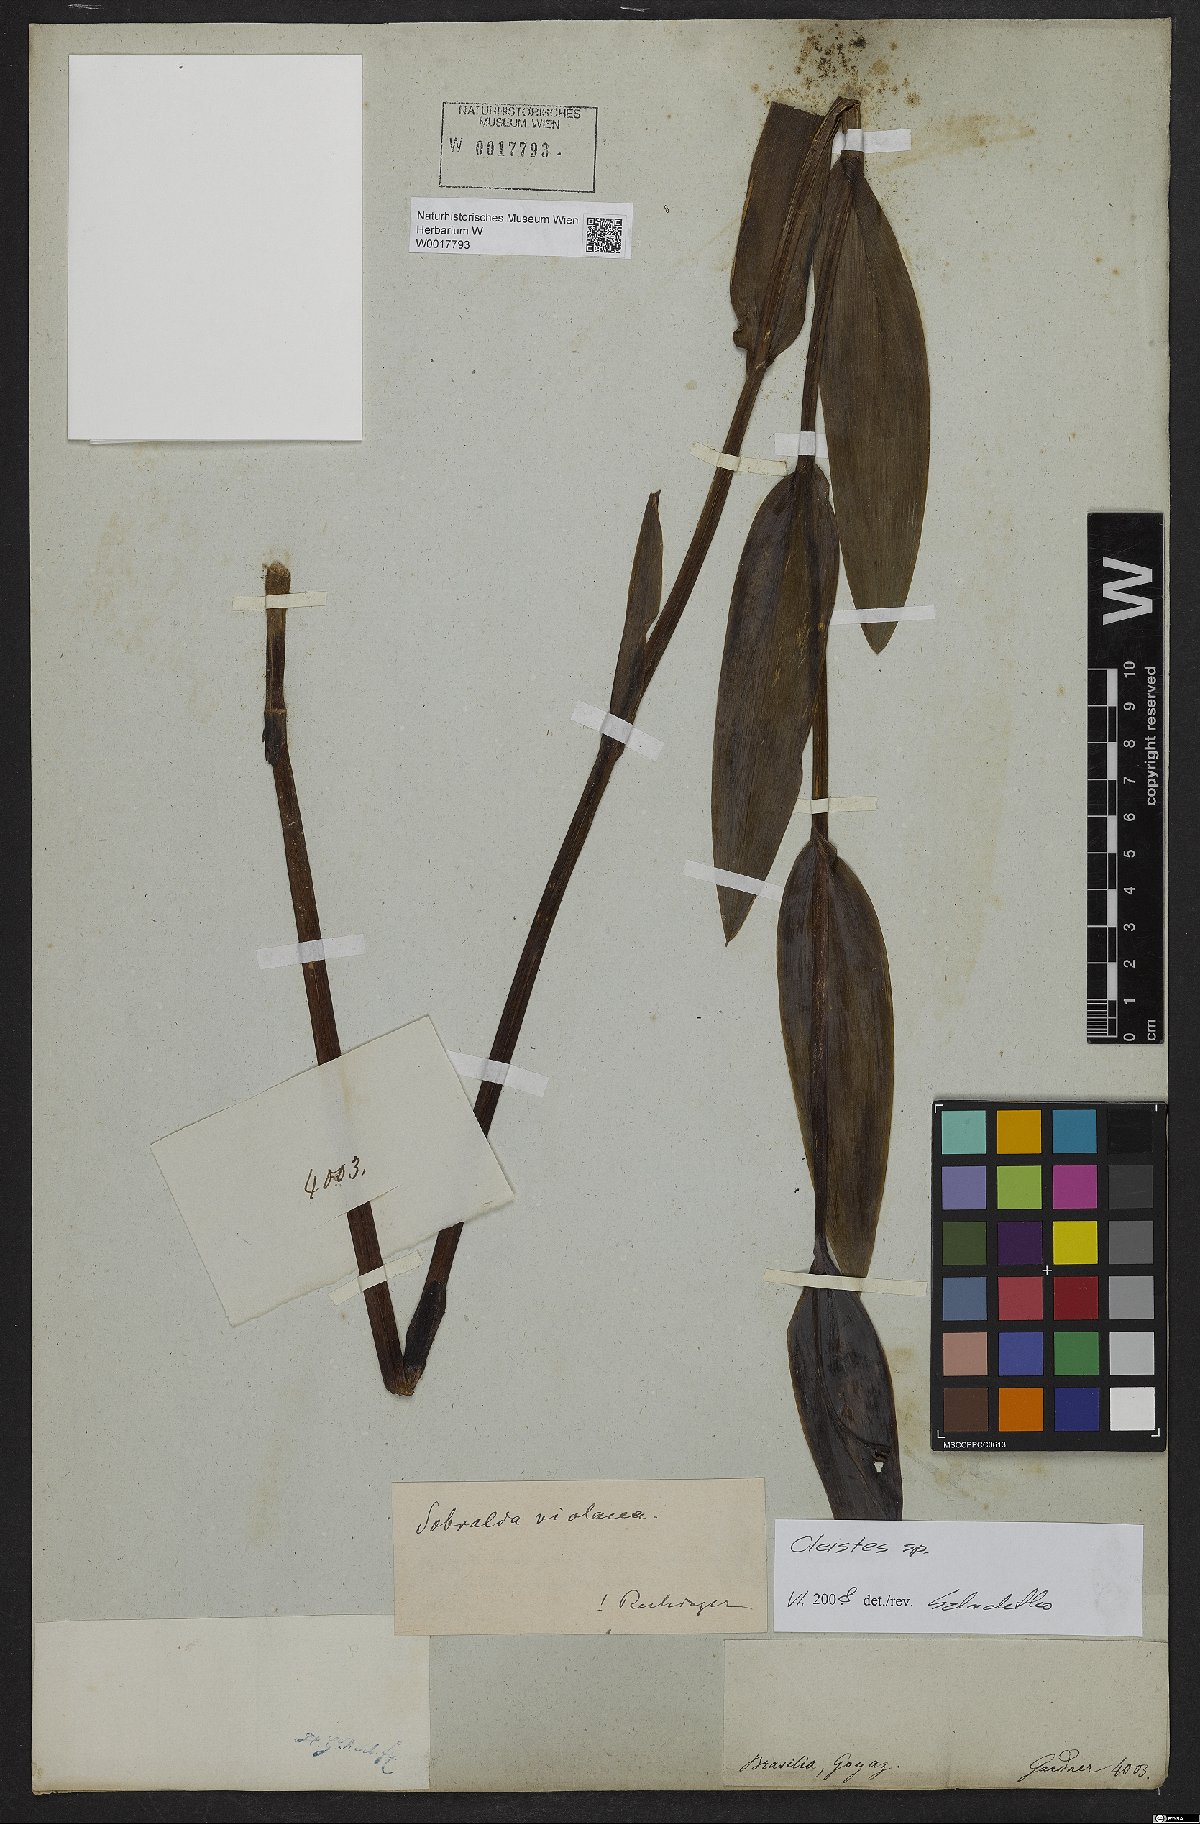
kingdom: Plantae
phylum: Tracheophyta
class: Liliopsida
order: Asparagales
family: Orchidaceae
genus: Cleistes
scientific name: Cleistes
